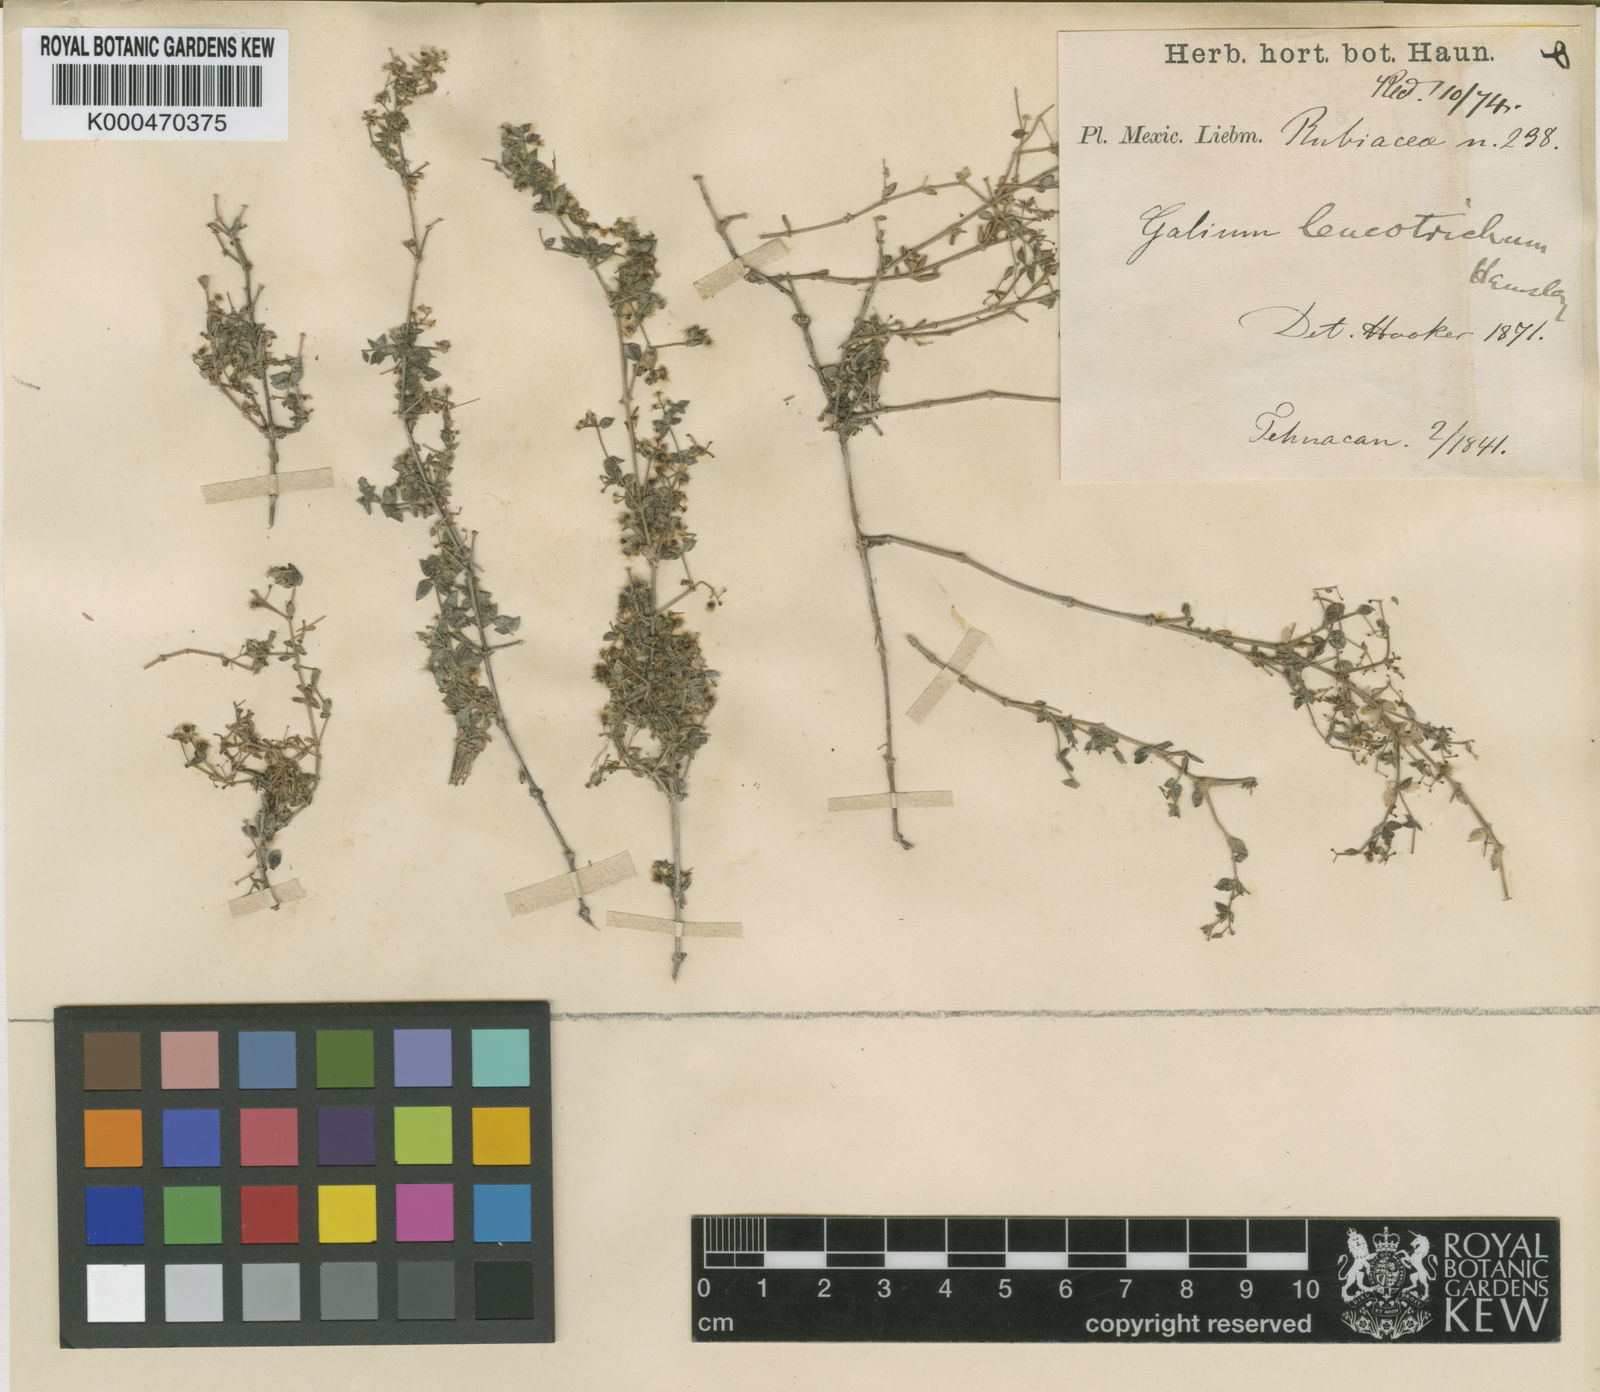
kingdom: Plantae
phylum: Tracheophyta
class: Magnoliopsida
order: Gentianales
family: Rubiaceae
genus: Galium
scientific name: Galium fuscum
